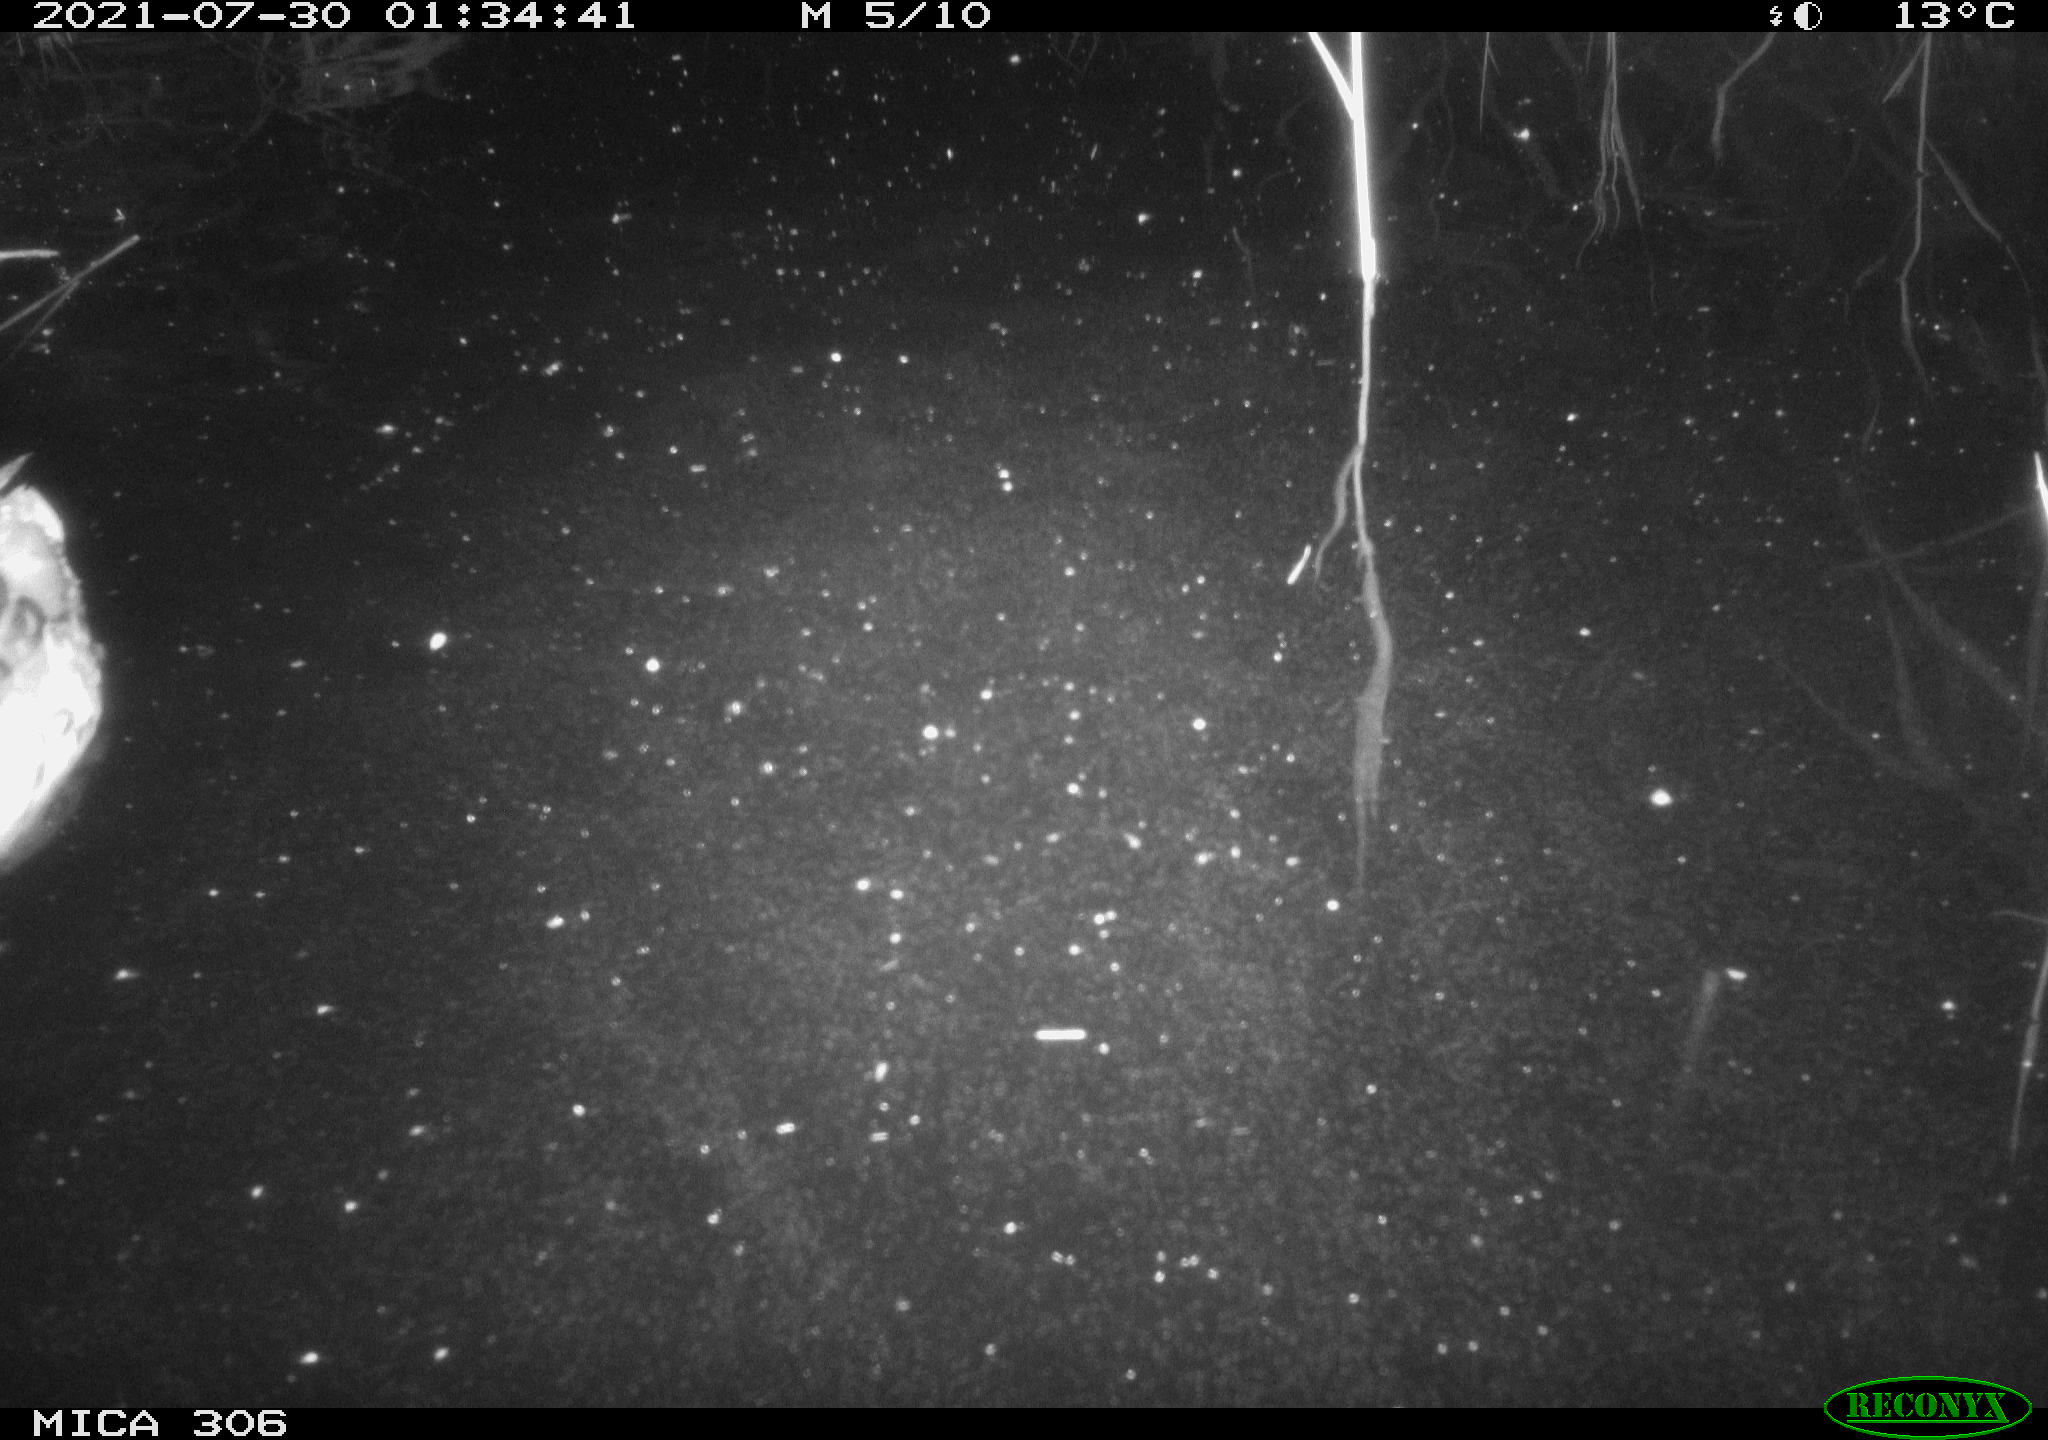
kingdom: Animalia
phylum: Chordata
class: Aves
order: Anseriformes
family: Anatidae
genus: Anas
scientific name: Anas platyrhynchos
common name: Mallard
